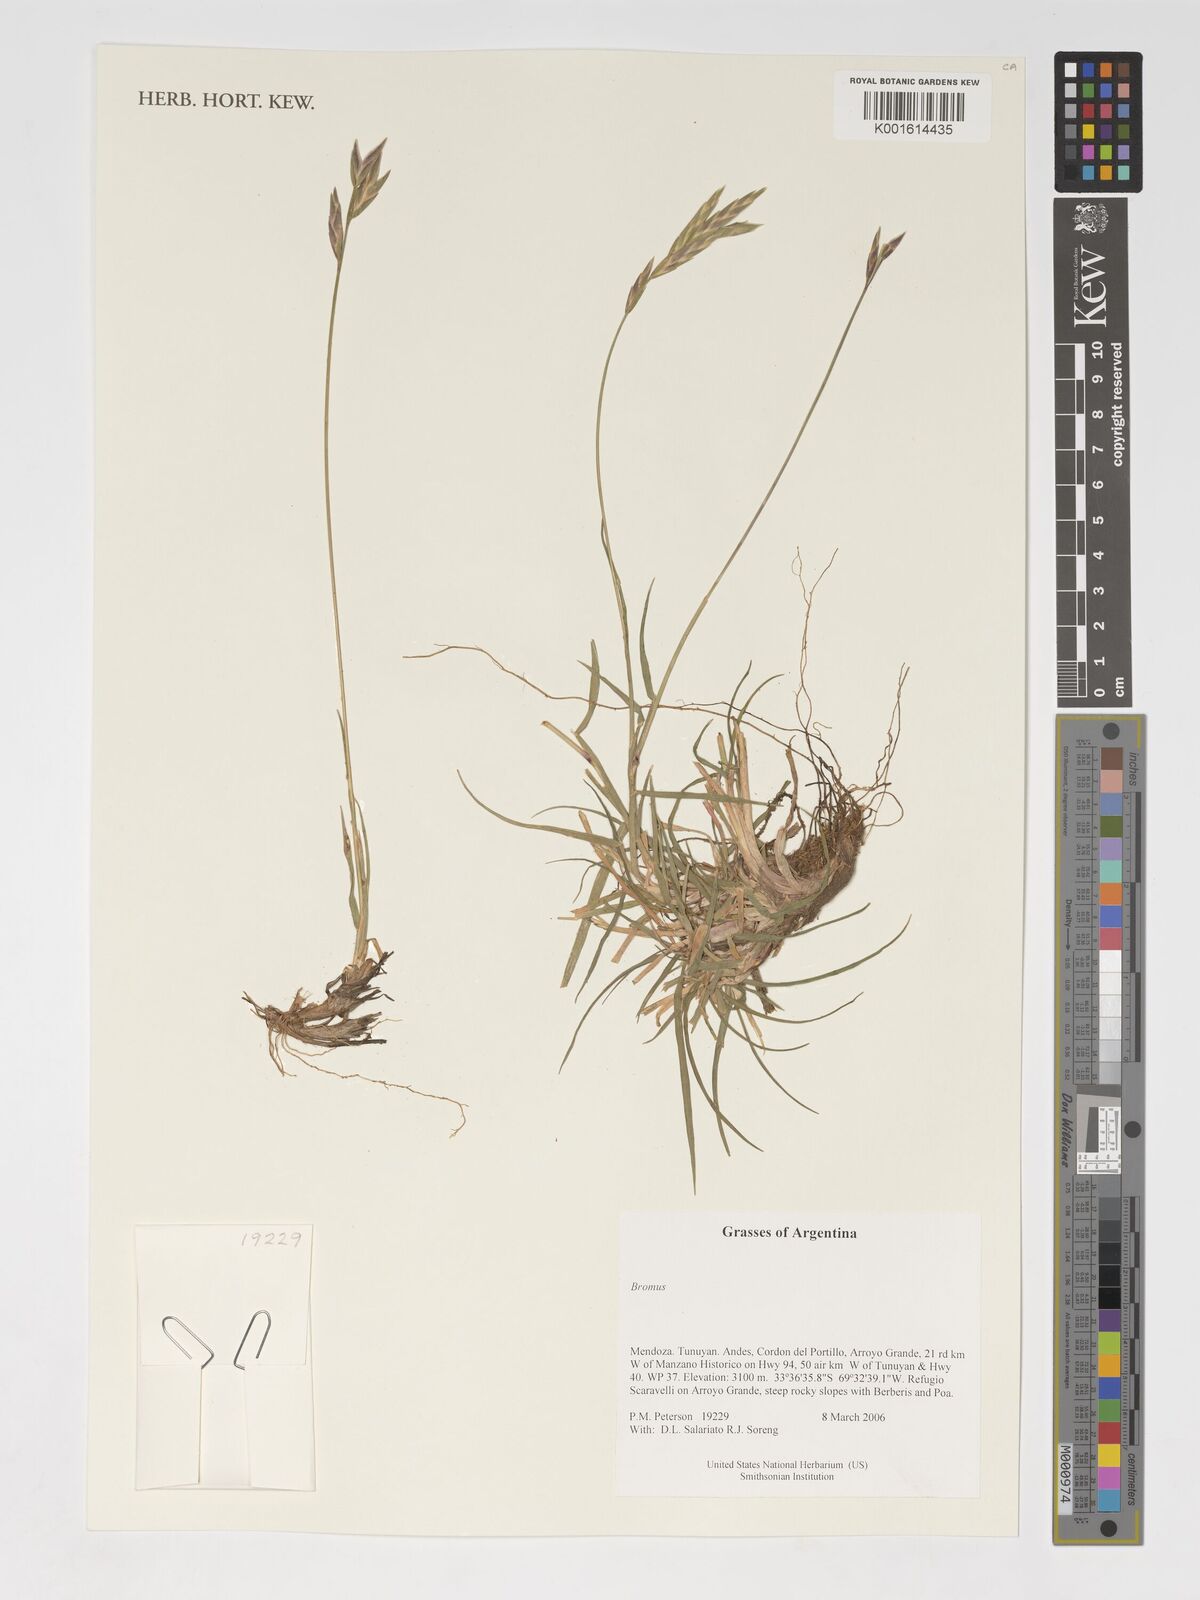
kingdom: Plantae
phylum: Tracheophyta
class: Liliopsida
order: Poales
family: Poaceae
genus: Bromus
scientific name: Bromus
